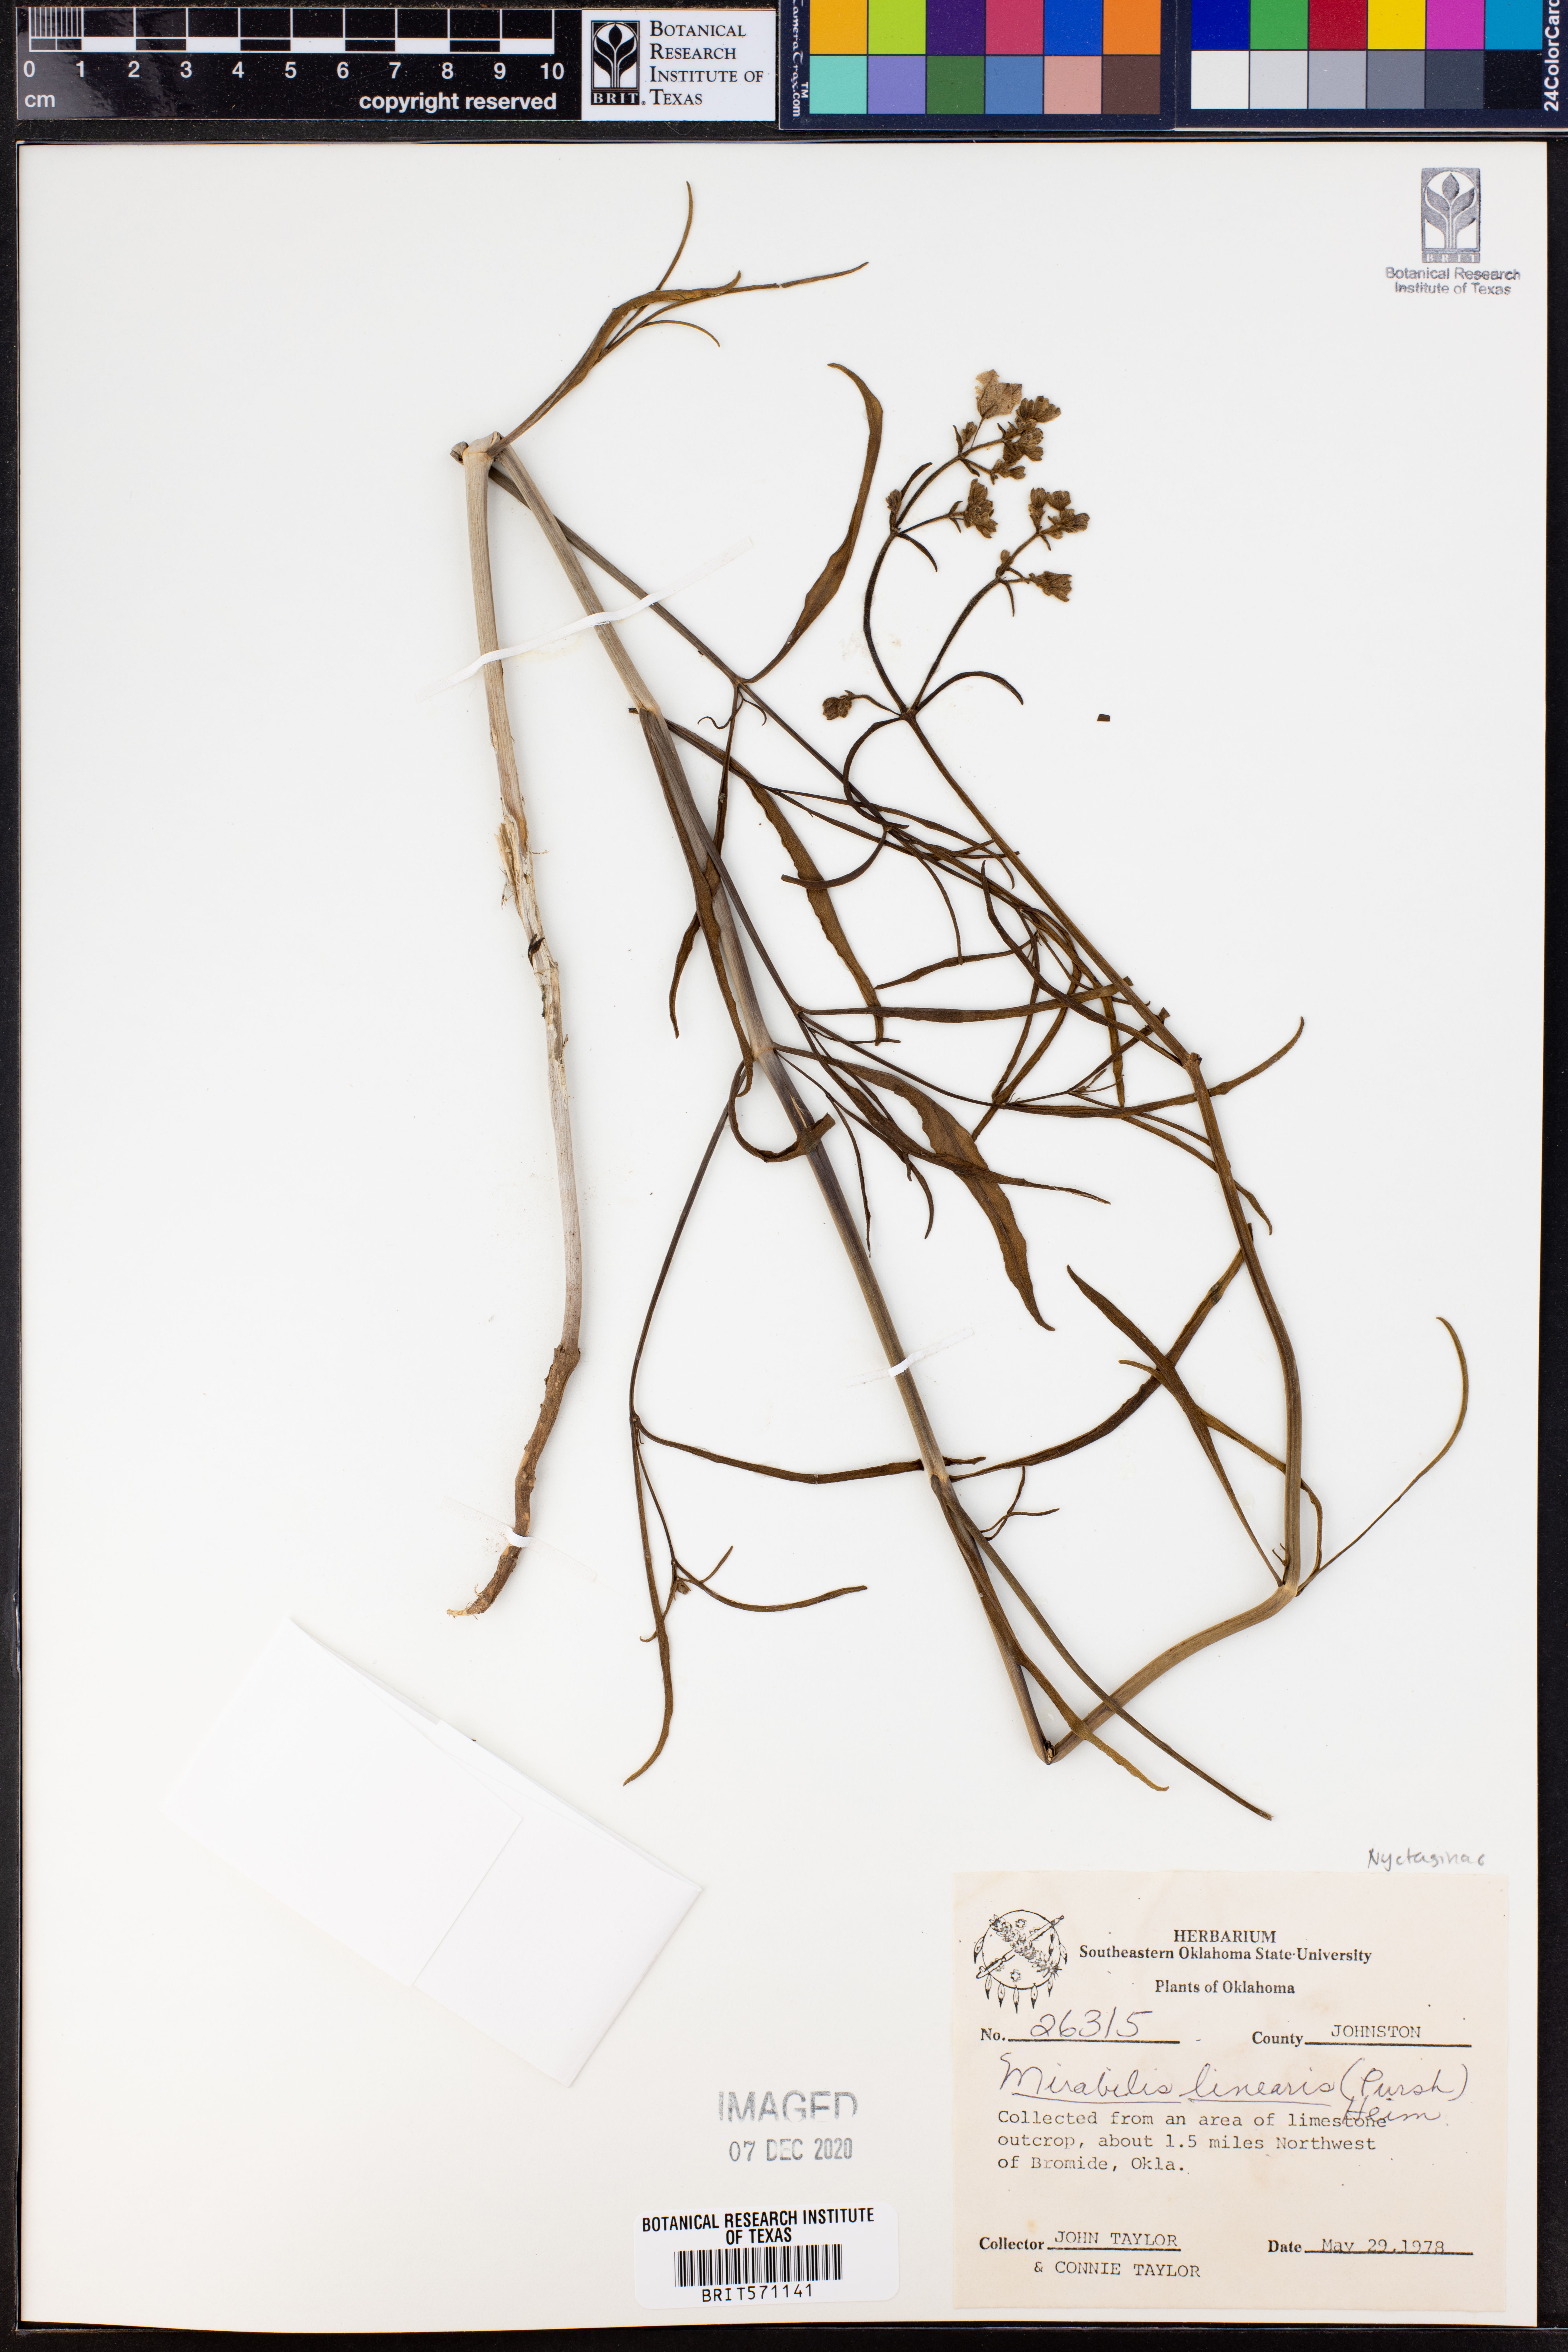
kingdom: Plantae
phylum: Tracheophyta
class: Magnoliopsida
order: Caryophyllales
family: Nyctaginaceae
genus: Mirabilis
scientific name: Mirabilis linearis
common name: Linear-leaved four-o'clock
